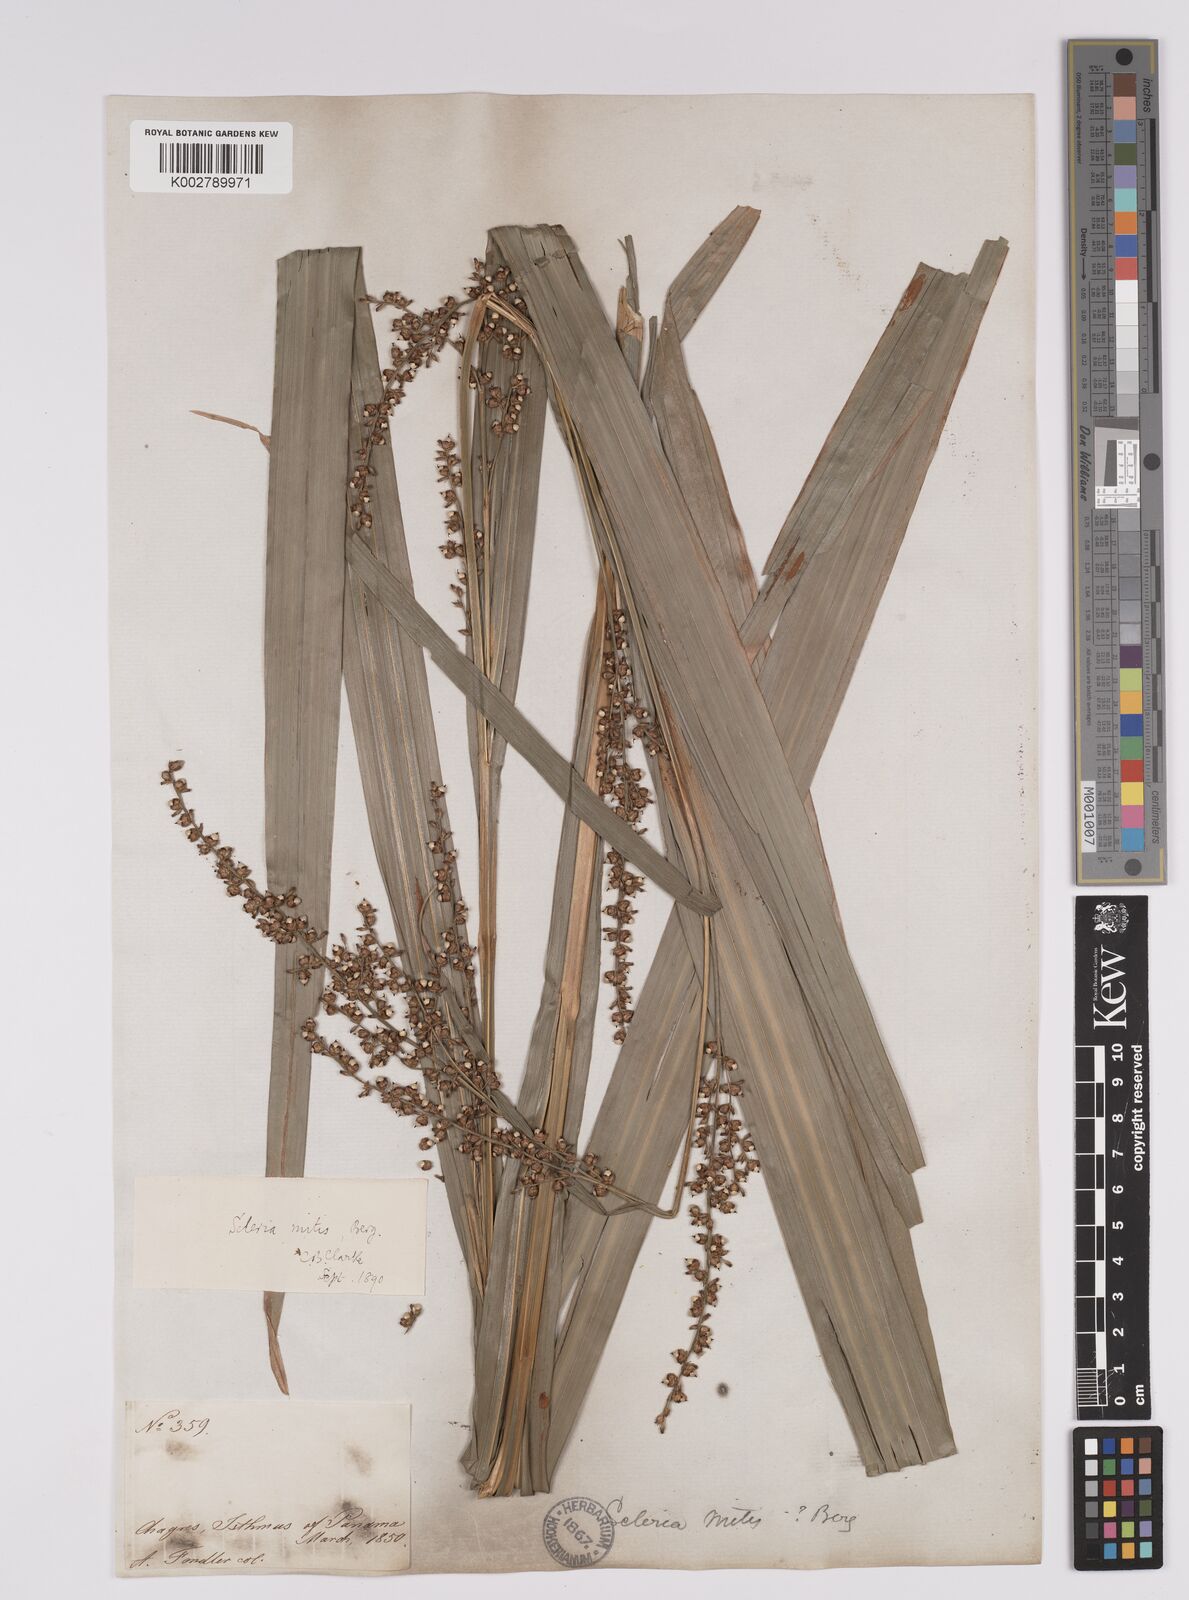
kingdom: Plantae
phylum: Tracheophyta
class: Liliopsida
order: Poales
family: Cyperaceae
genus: Scleria
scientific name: Scleria mitis
